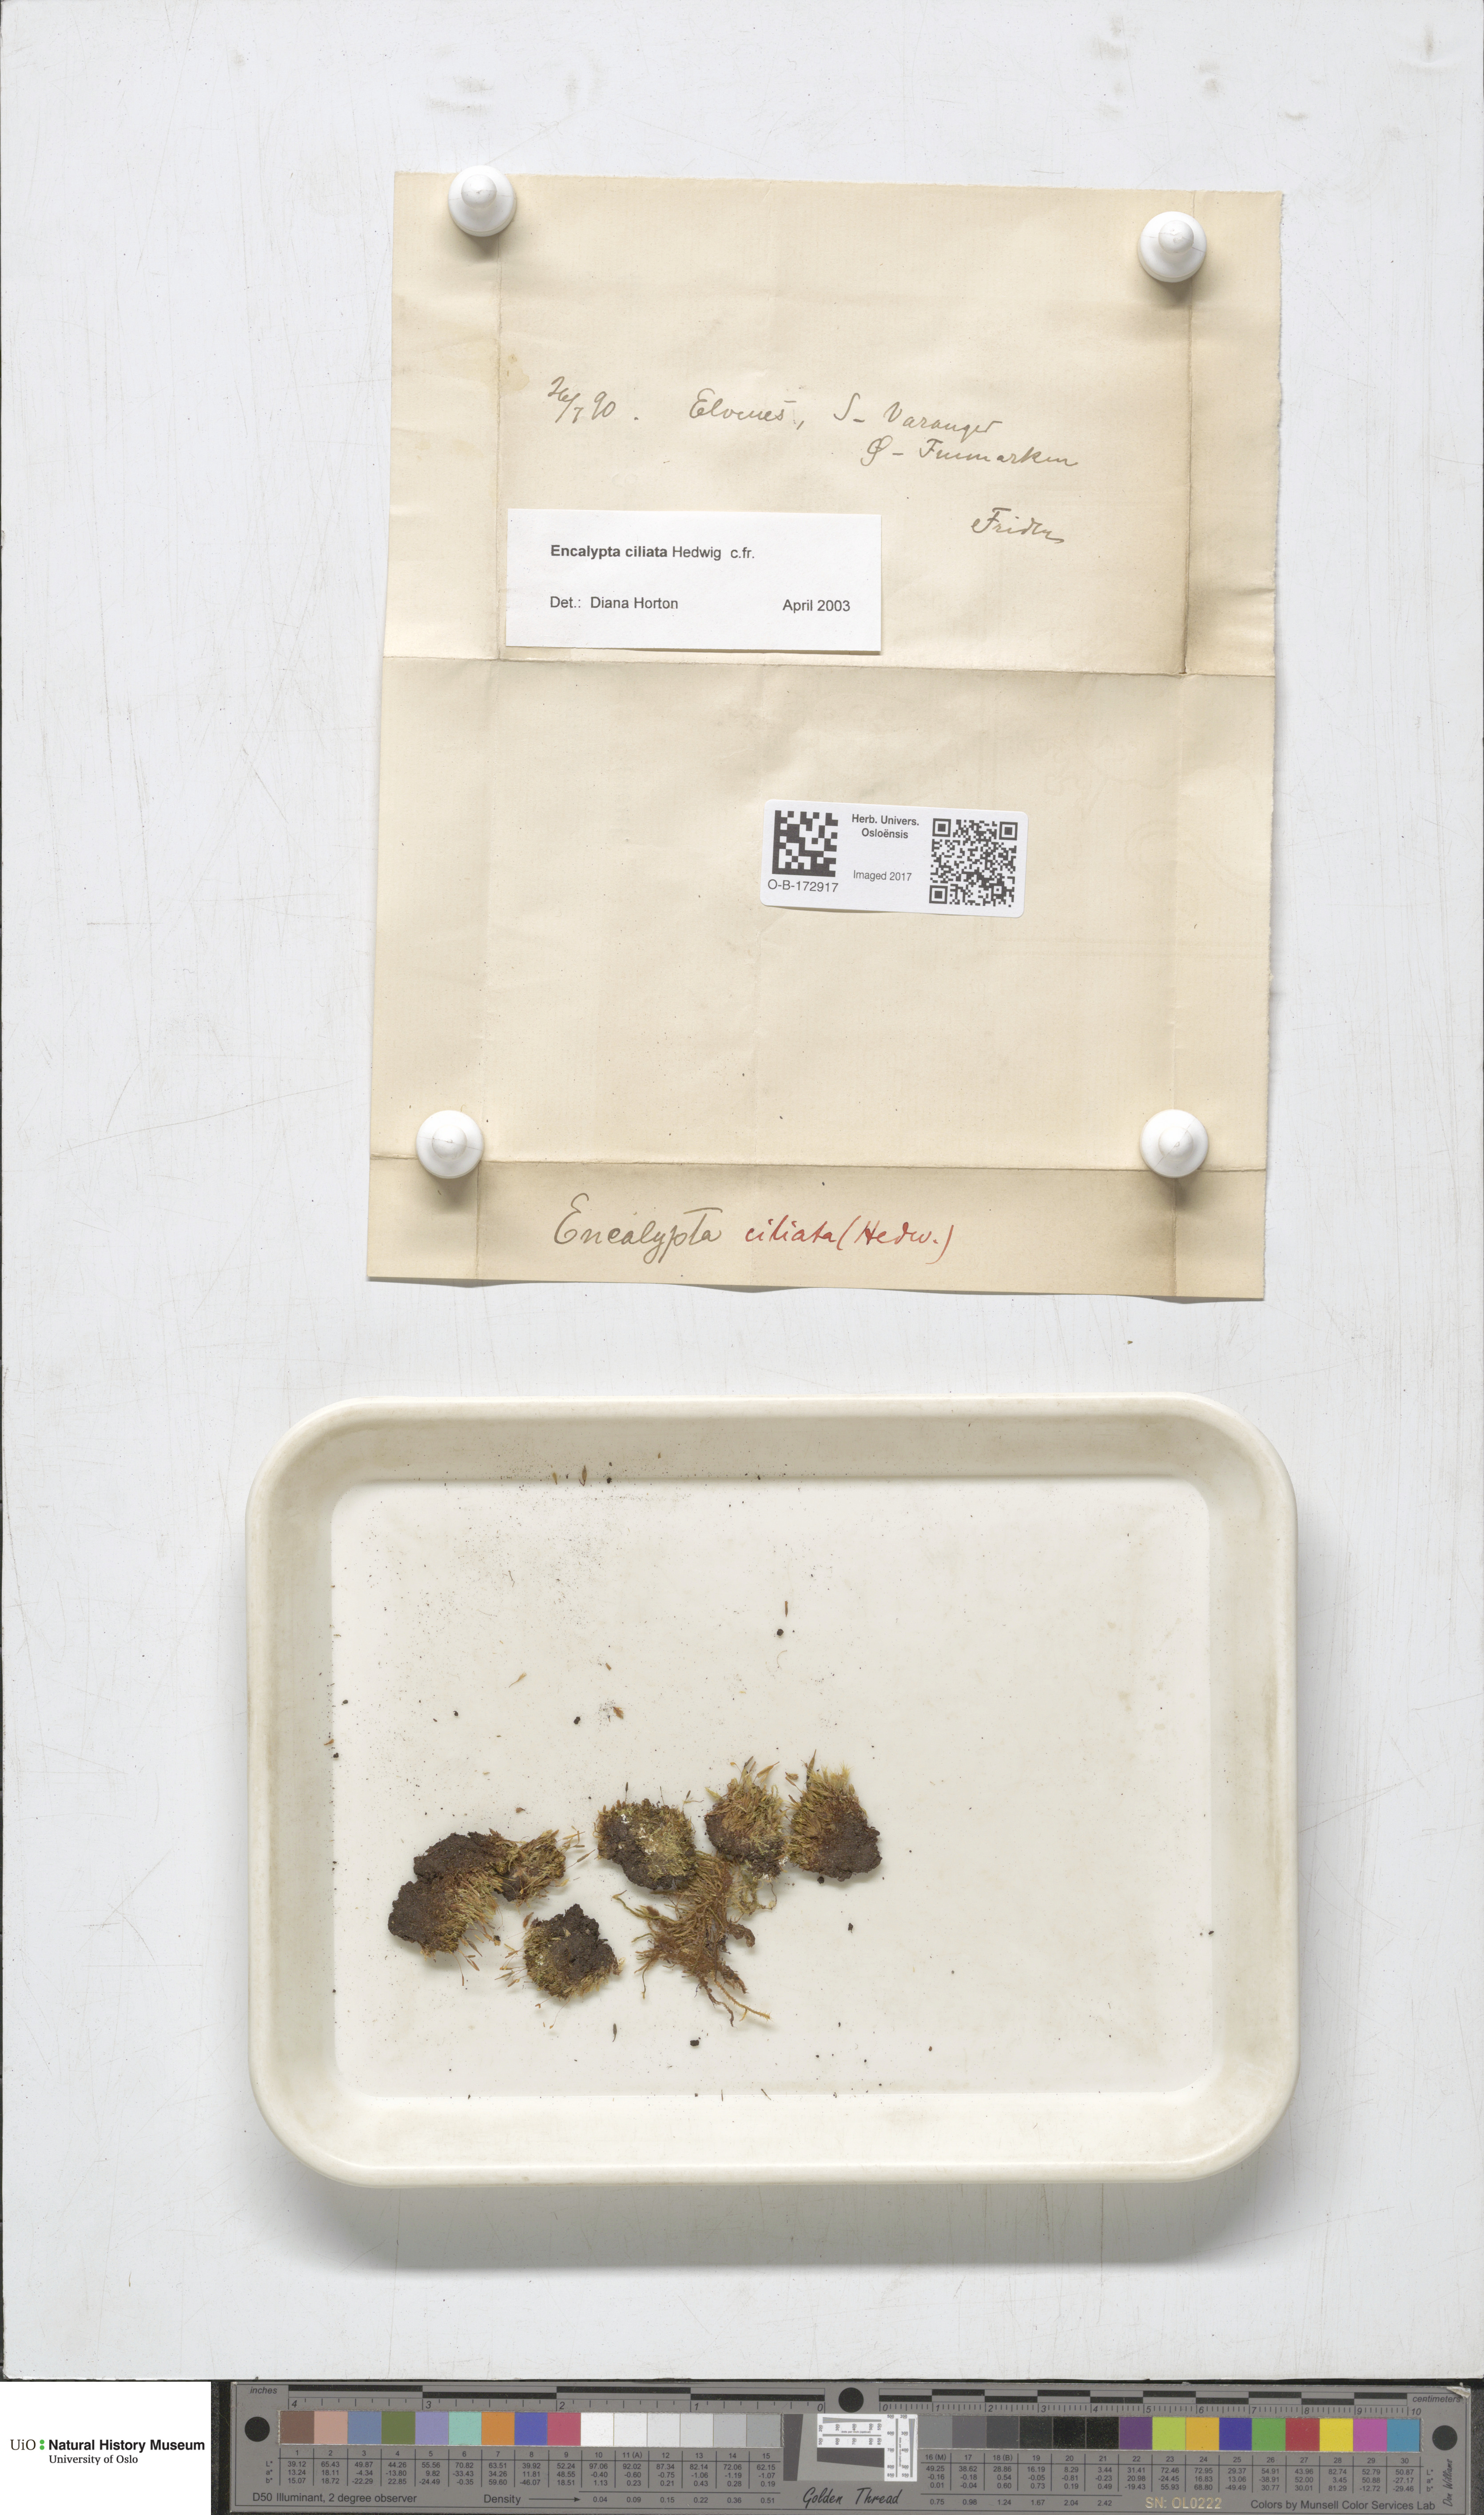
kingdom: Plantae
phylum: Bryophyta
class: Bryopsida
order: Encalyptales
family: Encalyptaceae
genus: Encalypta
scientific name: Encalypta ciliata
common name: Fringed extinguisher-moss
